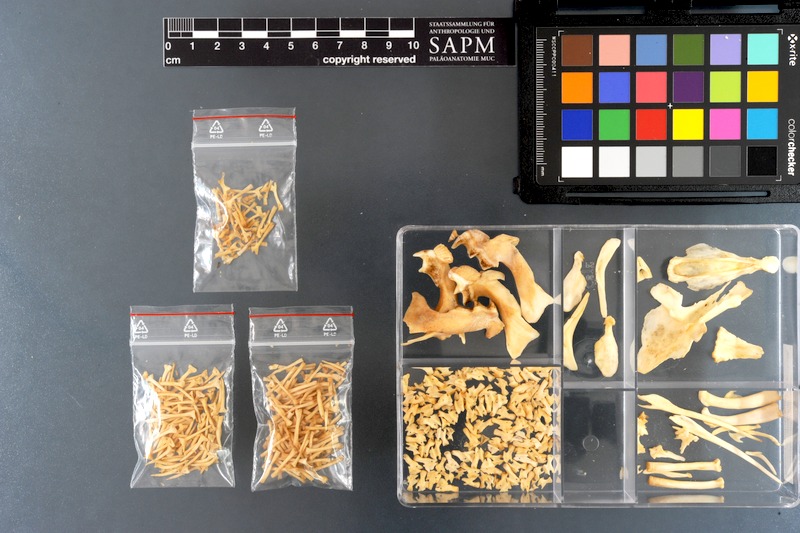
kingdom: Animalia
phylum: Chordata
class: Dipneusti
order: Ceratodontiformes
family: Lepidosirenidae
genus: Lepidosiren
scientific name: Lepidosiren paradoxa
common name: South american lungfish
